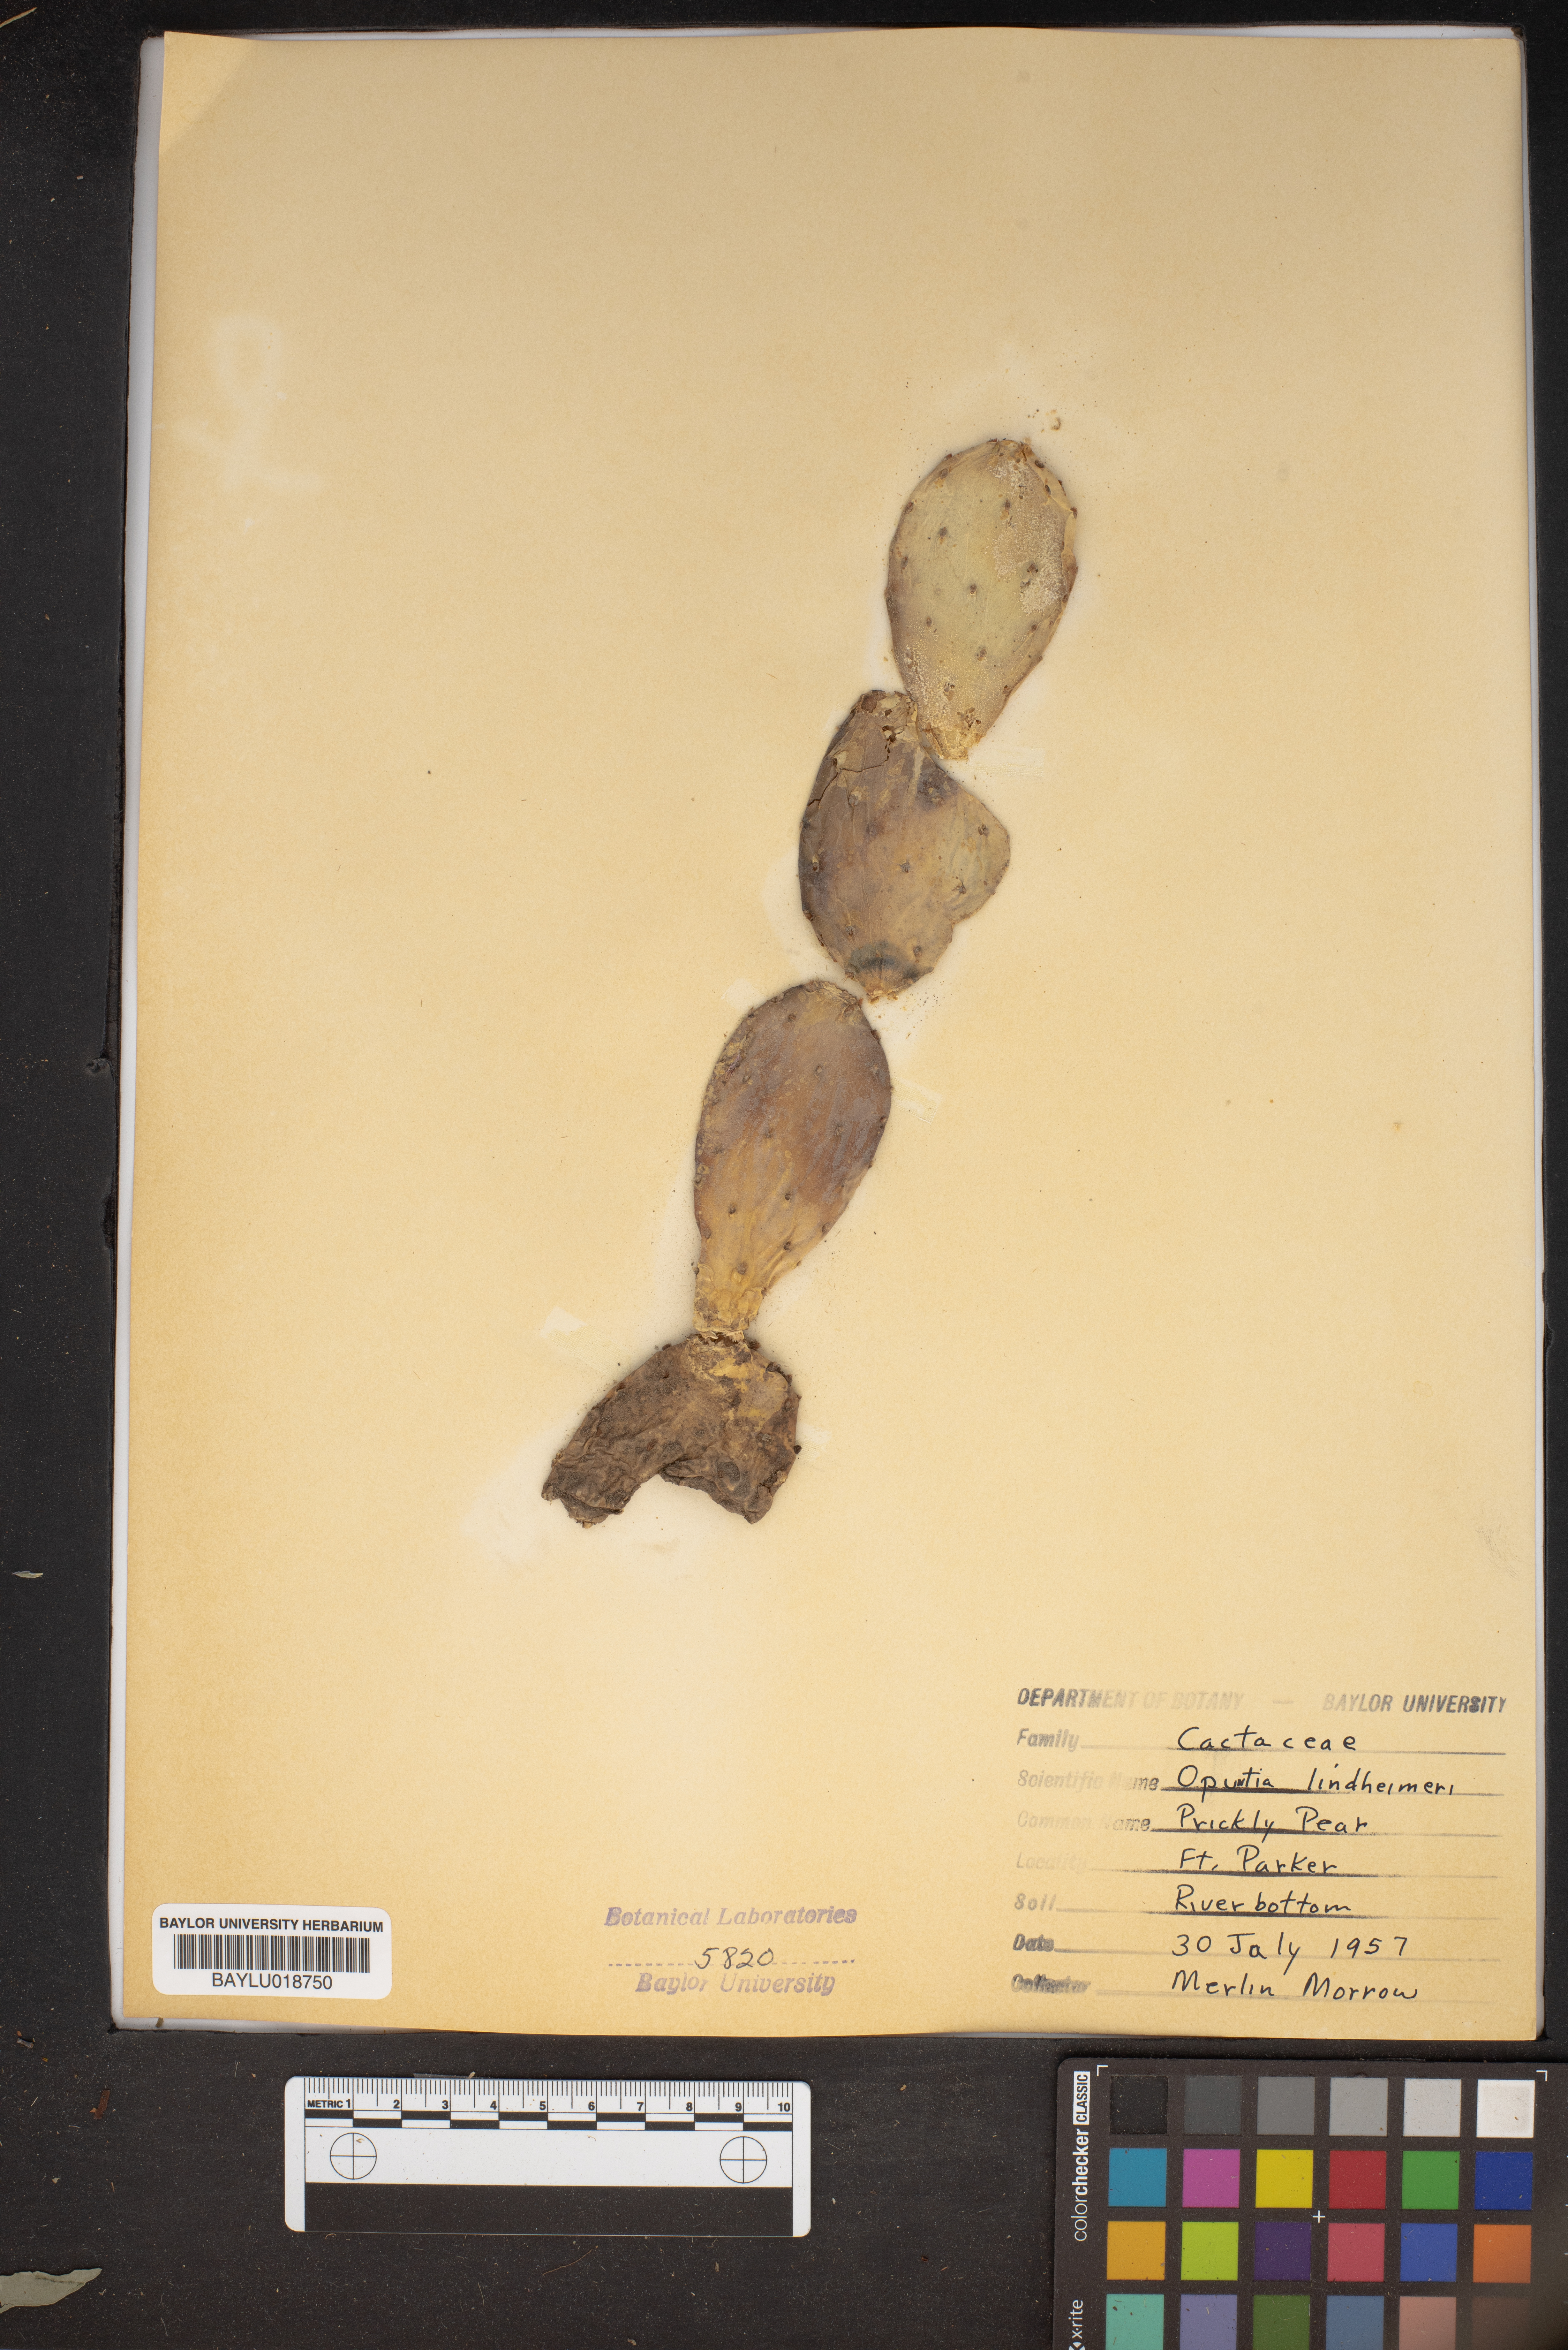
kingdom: Plantae
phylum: Tracheophyta
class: Magnoliopsida
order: Caryophyllales
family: Cactaceae
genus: Opuntia
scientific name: Opuntia engelmannii
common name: Cactus-apple
